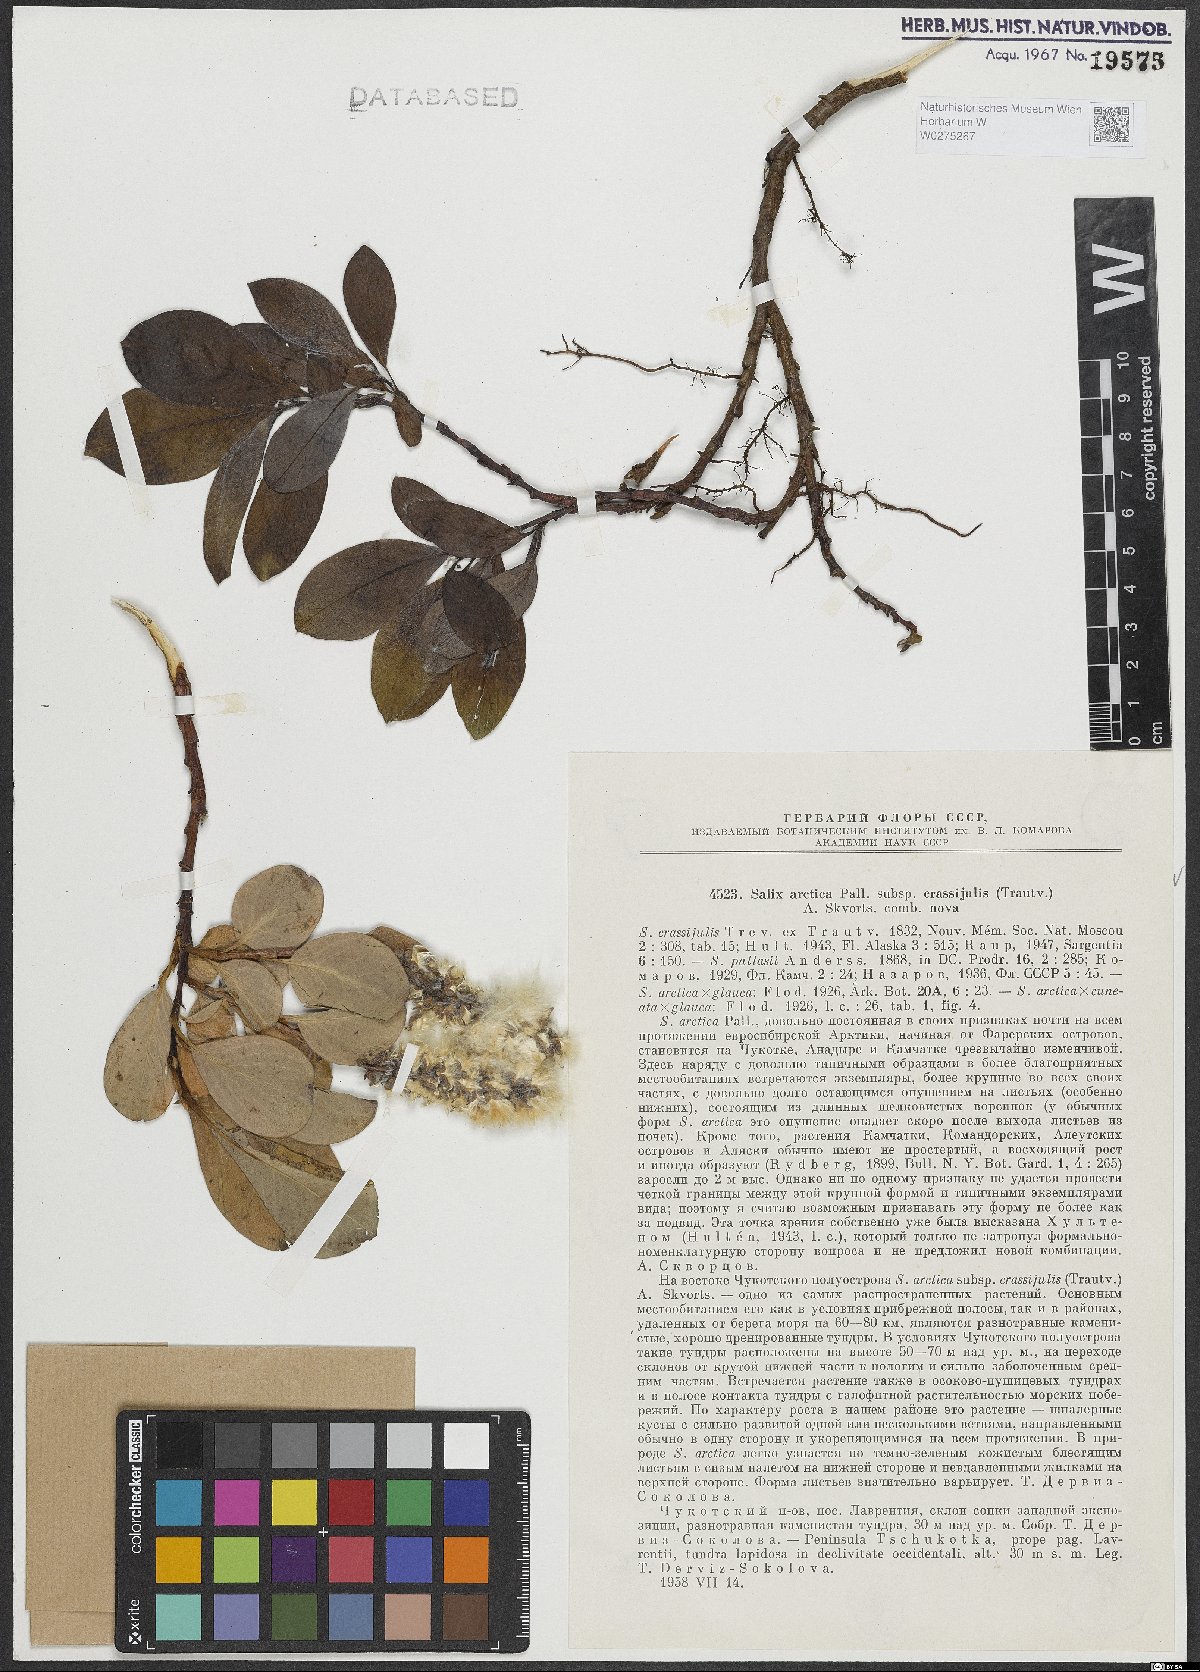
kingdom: Plantae
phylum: Tracheophyta
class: Magnoliopsida
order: Malpighiales
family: Salicaceae
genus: Salix
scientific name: Salix arctica
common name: Arctic willow
